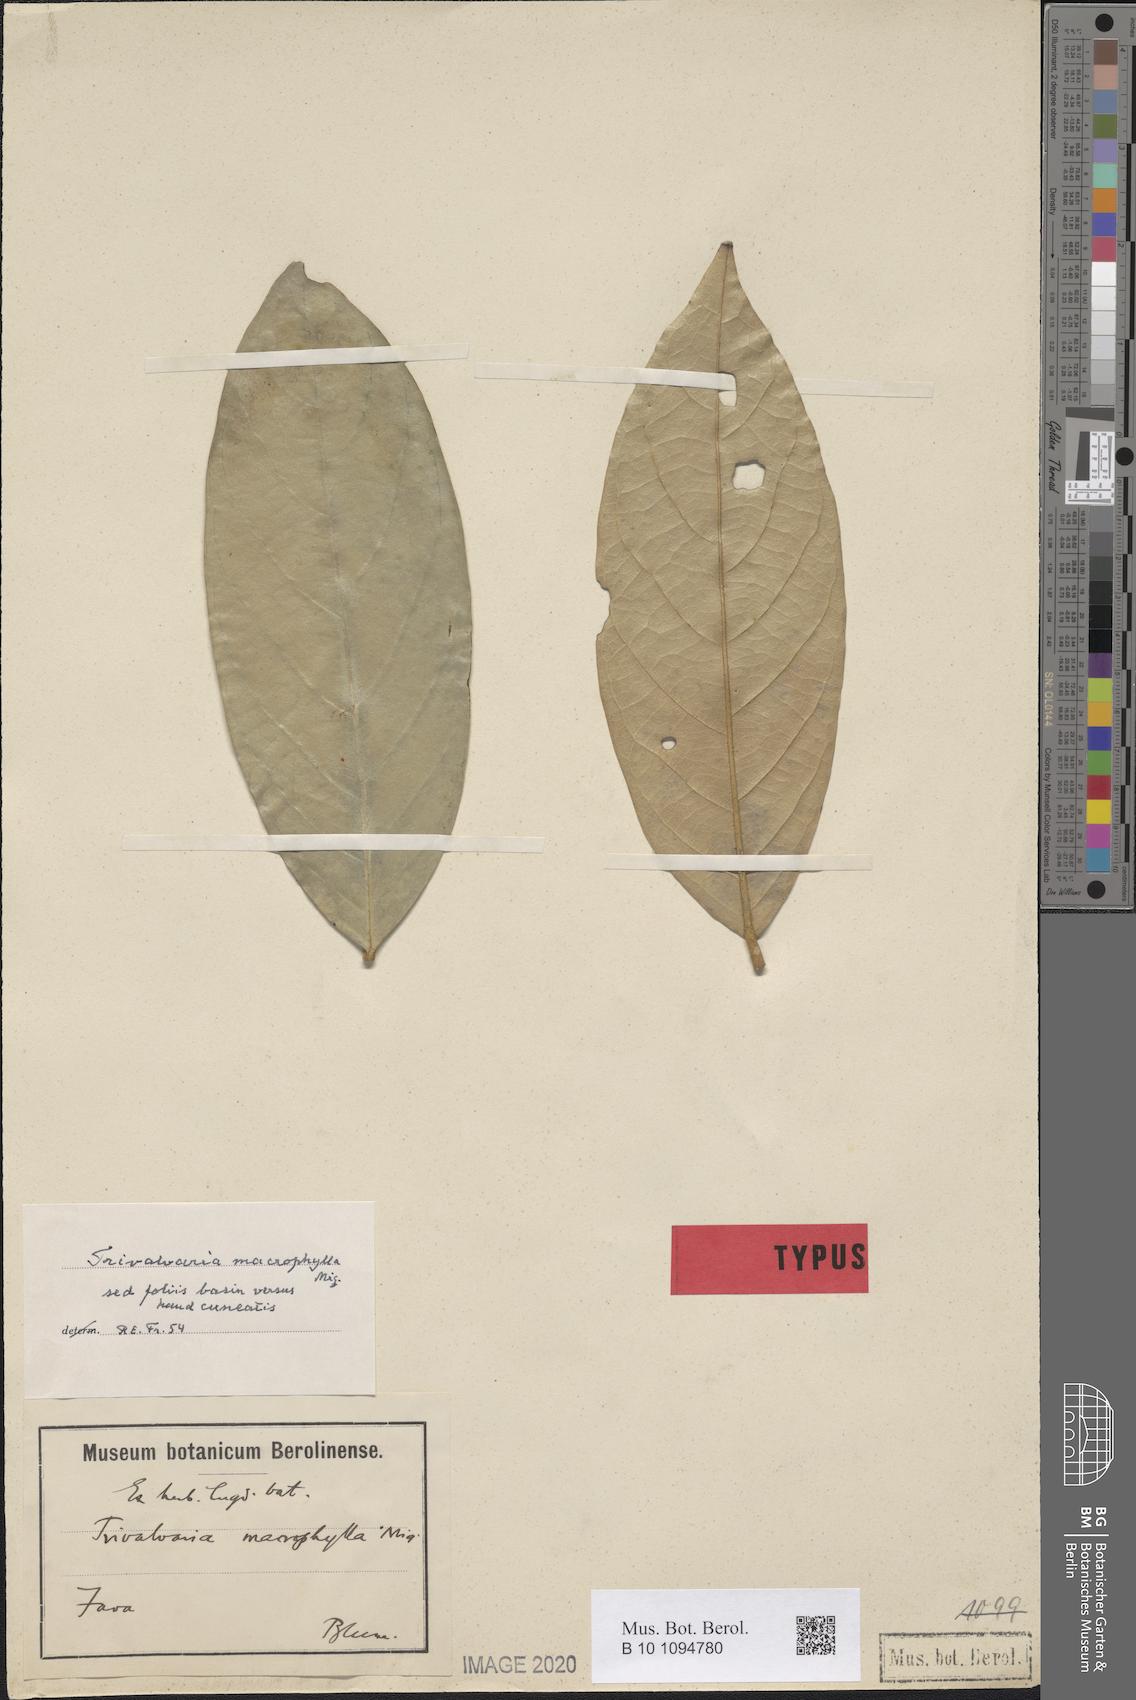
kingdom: Plantae
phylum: Tracheophyta
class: Magnoliopsida
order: Magnoliales
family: Annonaceae
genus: Trivalvaria
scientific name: Trivalvaria macrophylla
